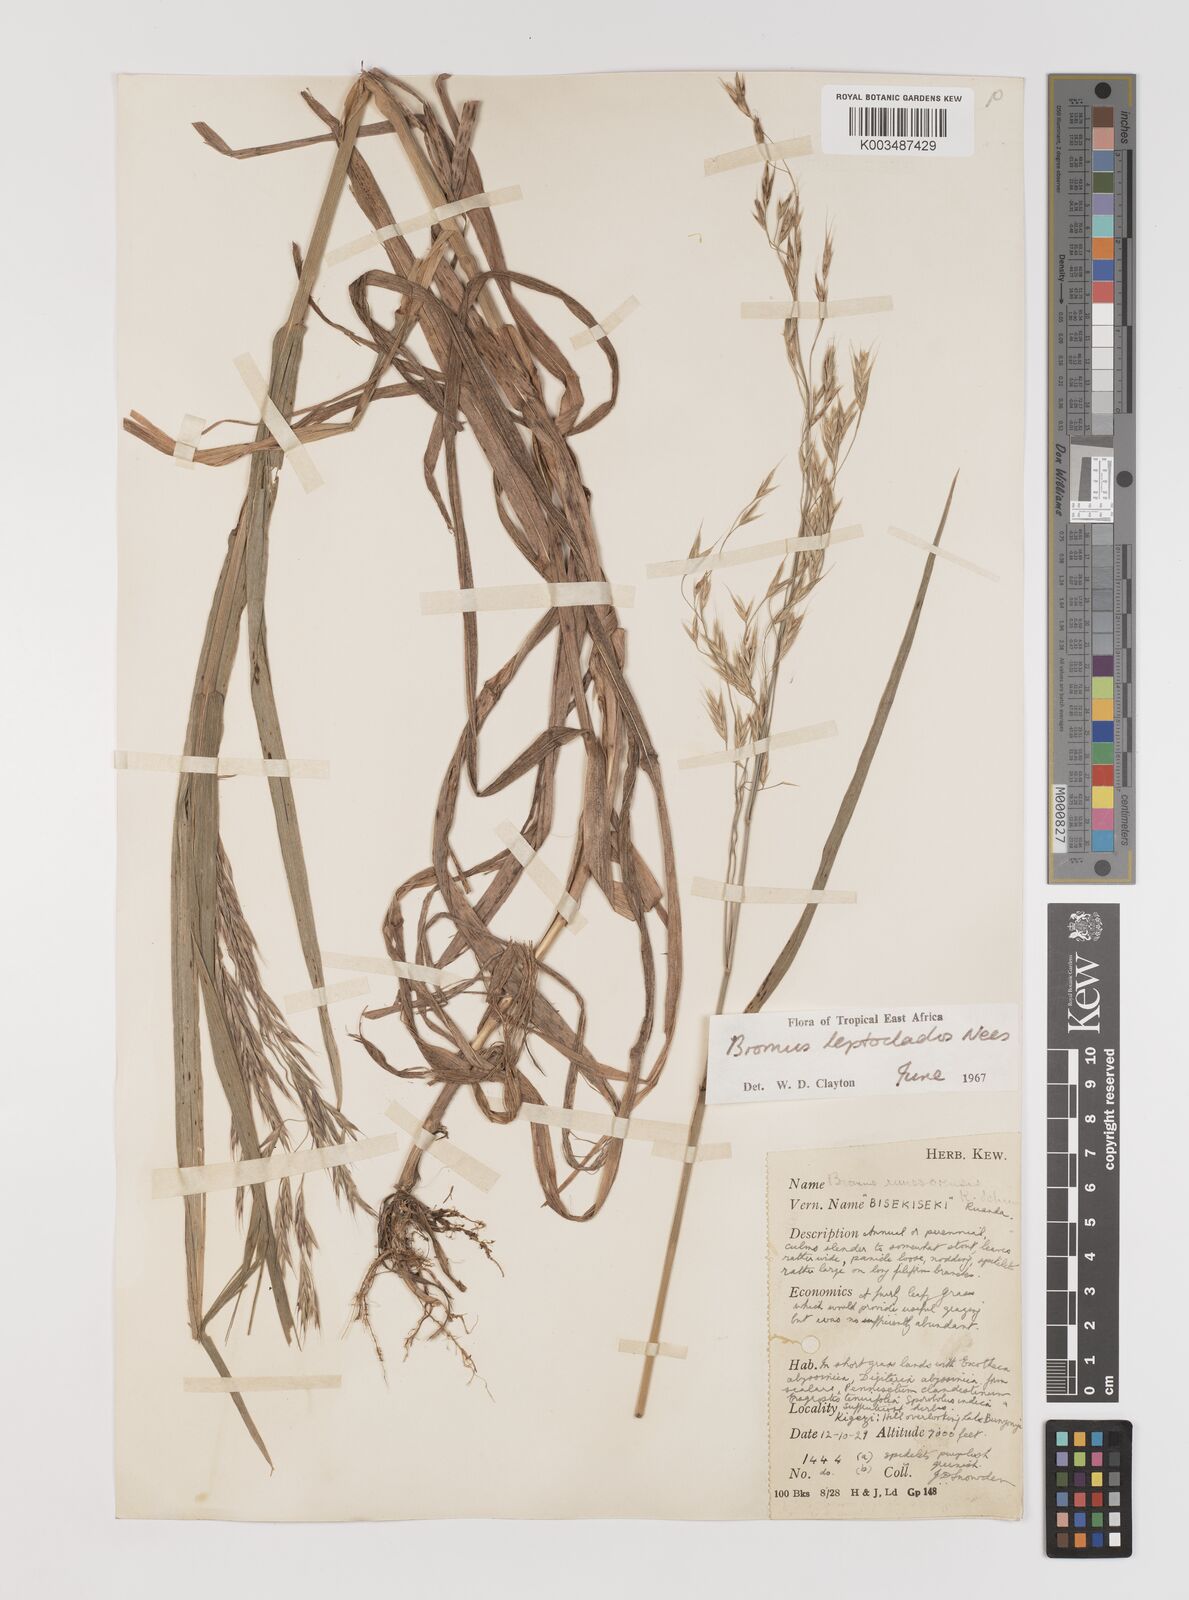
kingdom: Plantae
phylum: Tracheophyta
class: Liliopsida
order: Poales
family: Poaceae
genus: Bromus
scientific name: Bromus leptoclados
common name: Mountain bromegrass
